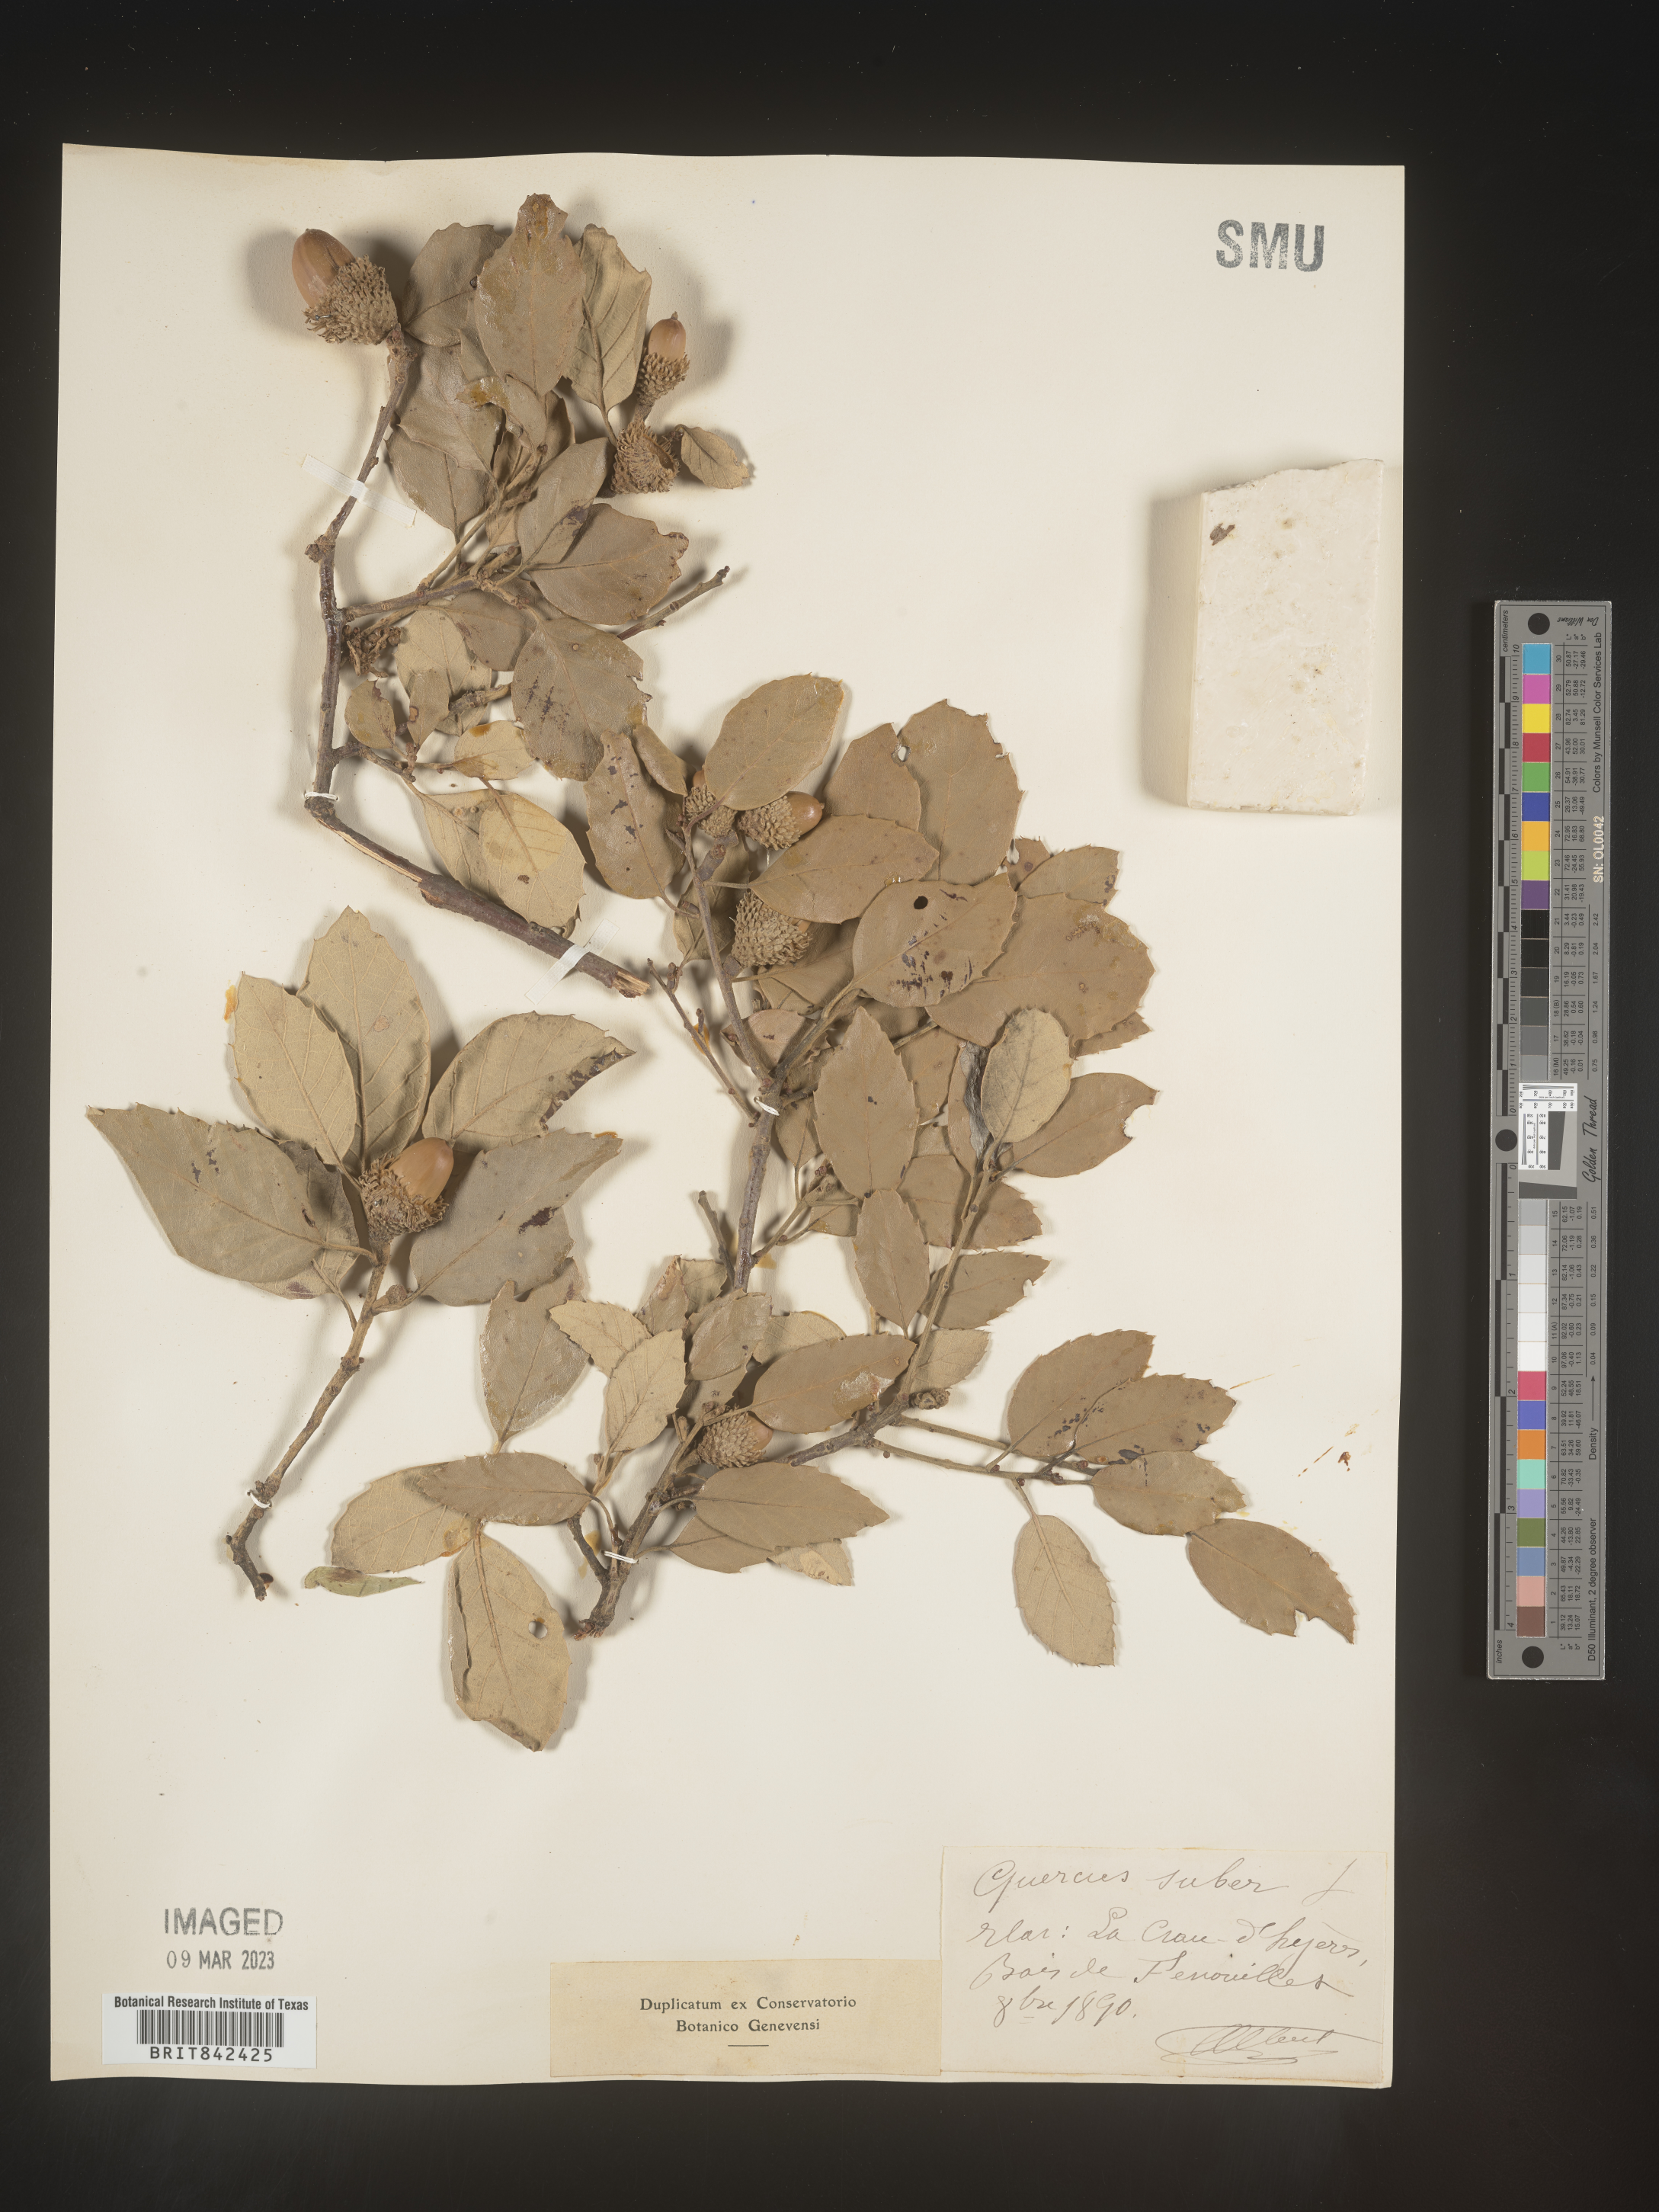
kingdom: Plantae
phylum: Tracheophyta
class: Magnoliopsida
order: Fagales
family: Fagaceae
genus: Quercus
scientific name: Quercus
